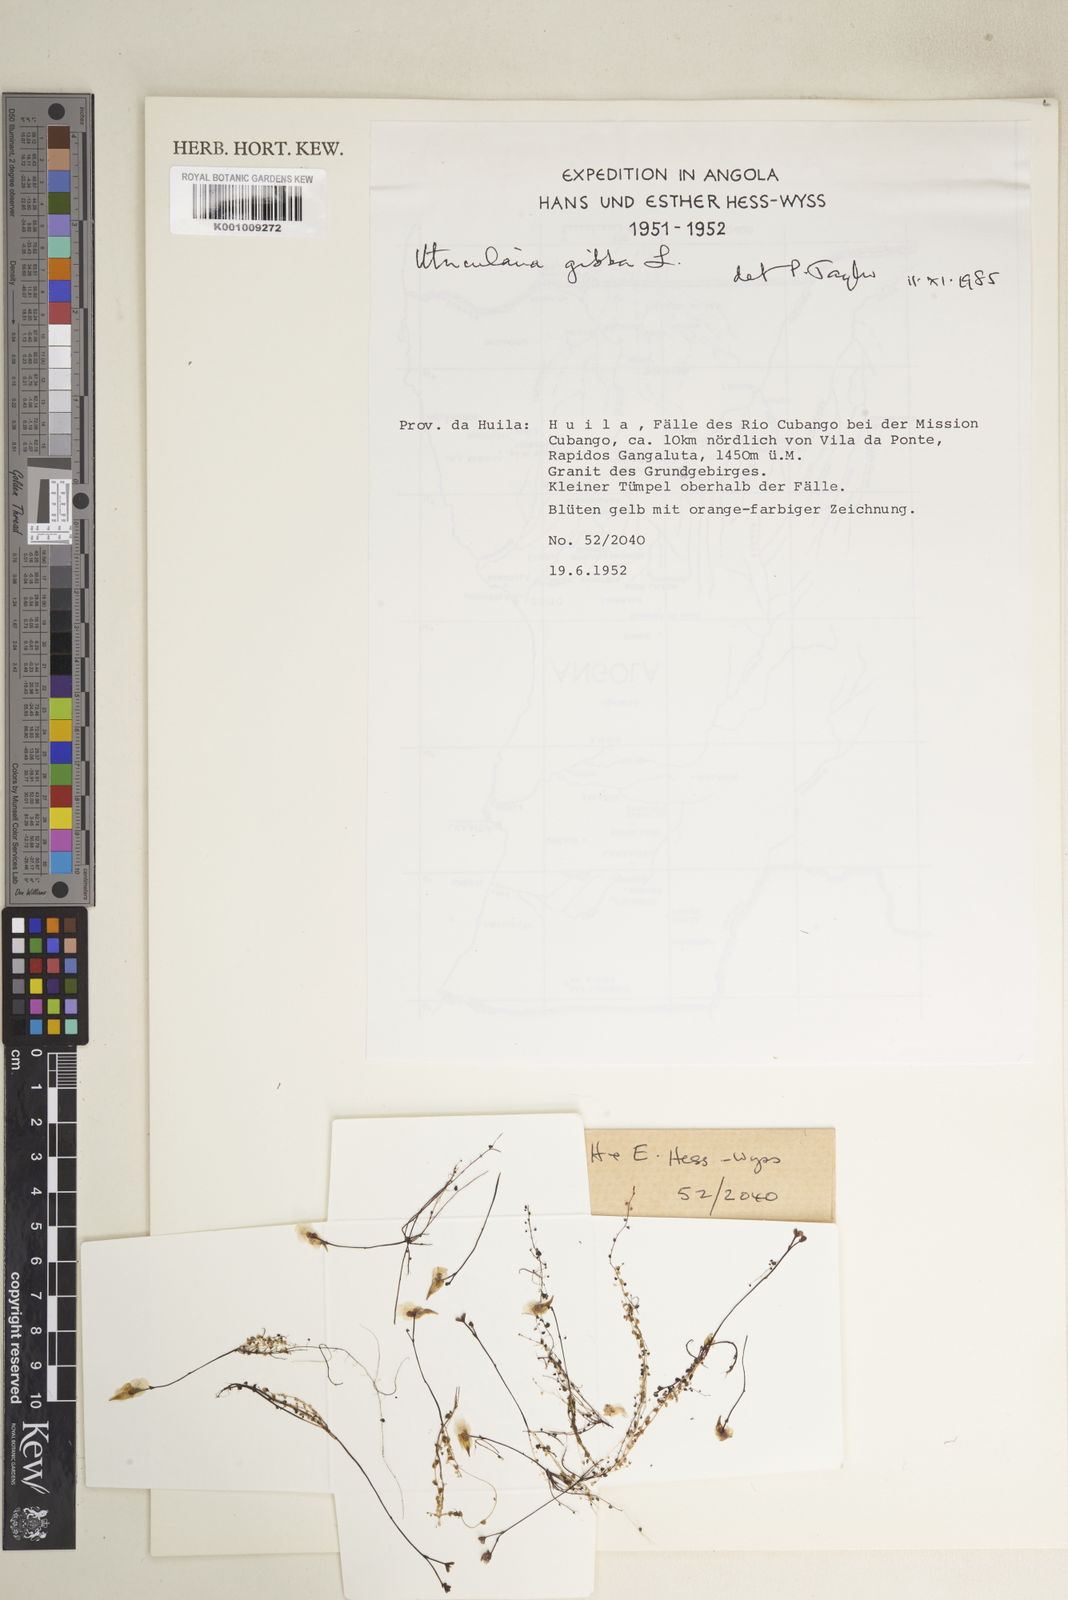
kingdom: Plantae
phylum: Tracheophyta
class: Magnoliopsida
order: Lamiales
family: Lentibulariaceae
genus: Utricularia
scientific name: Utricularia gibba
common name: Humped bladderwort
